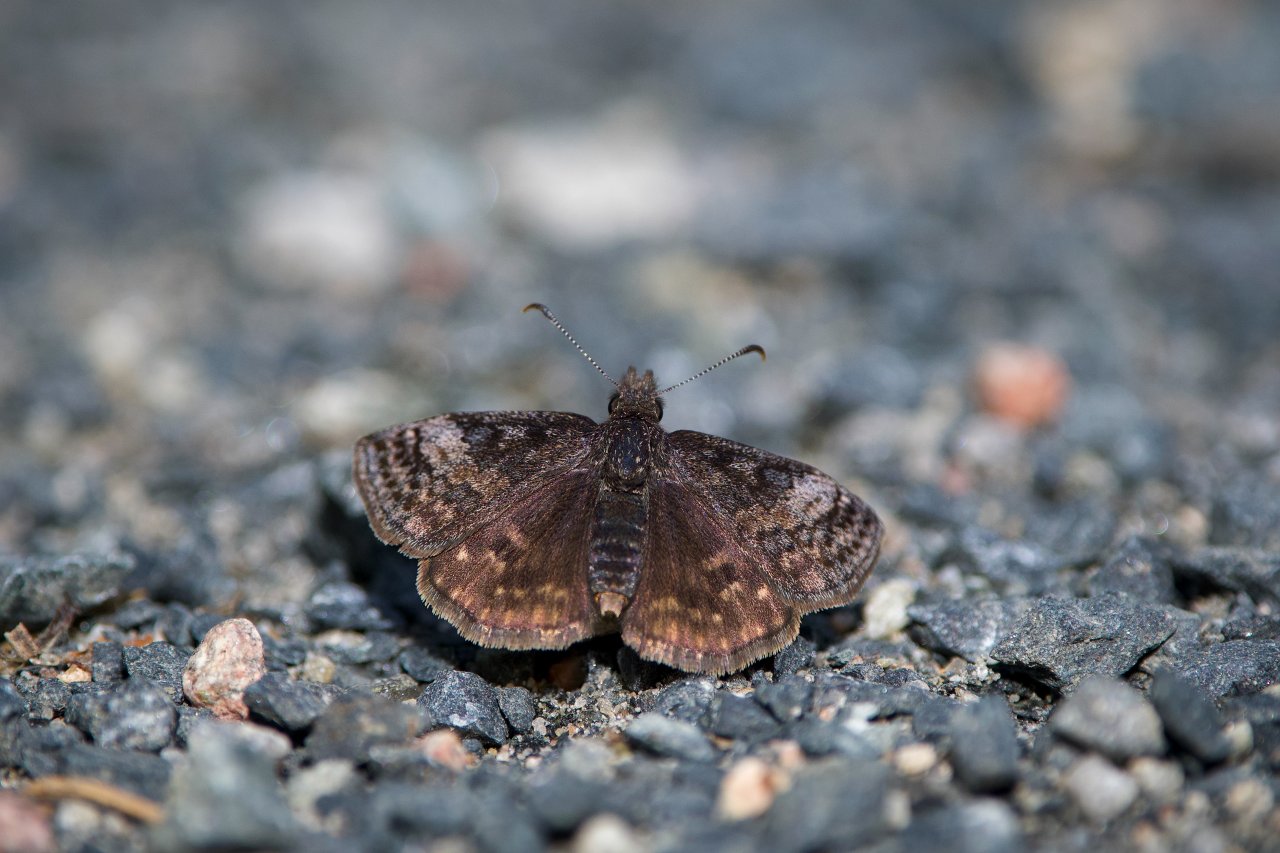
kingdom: Animalia
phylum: Arthropoda
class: Insecta
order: Lepidoptera
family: Hesperiidae
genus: Erynnis
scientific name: Erynnis icelus
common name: Dreamy Duskywing
